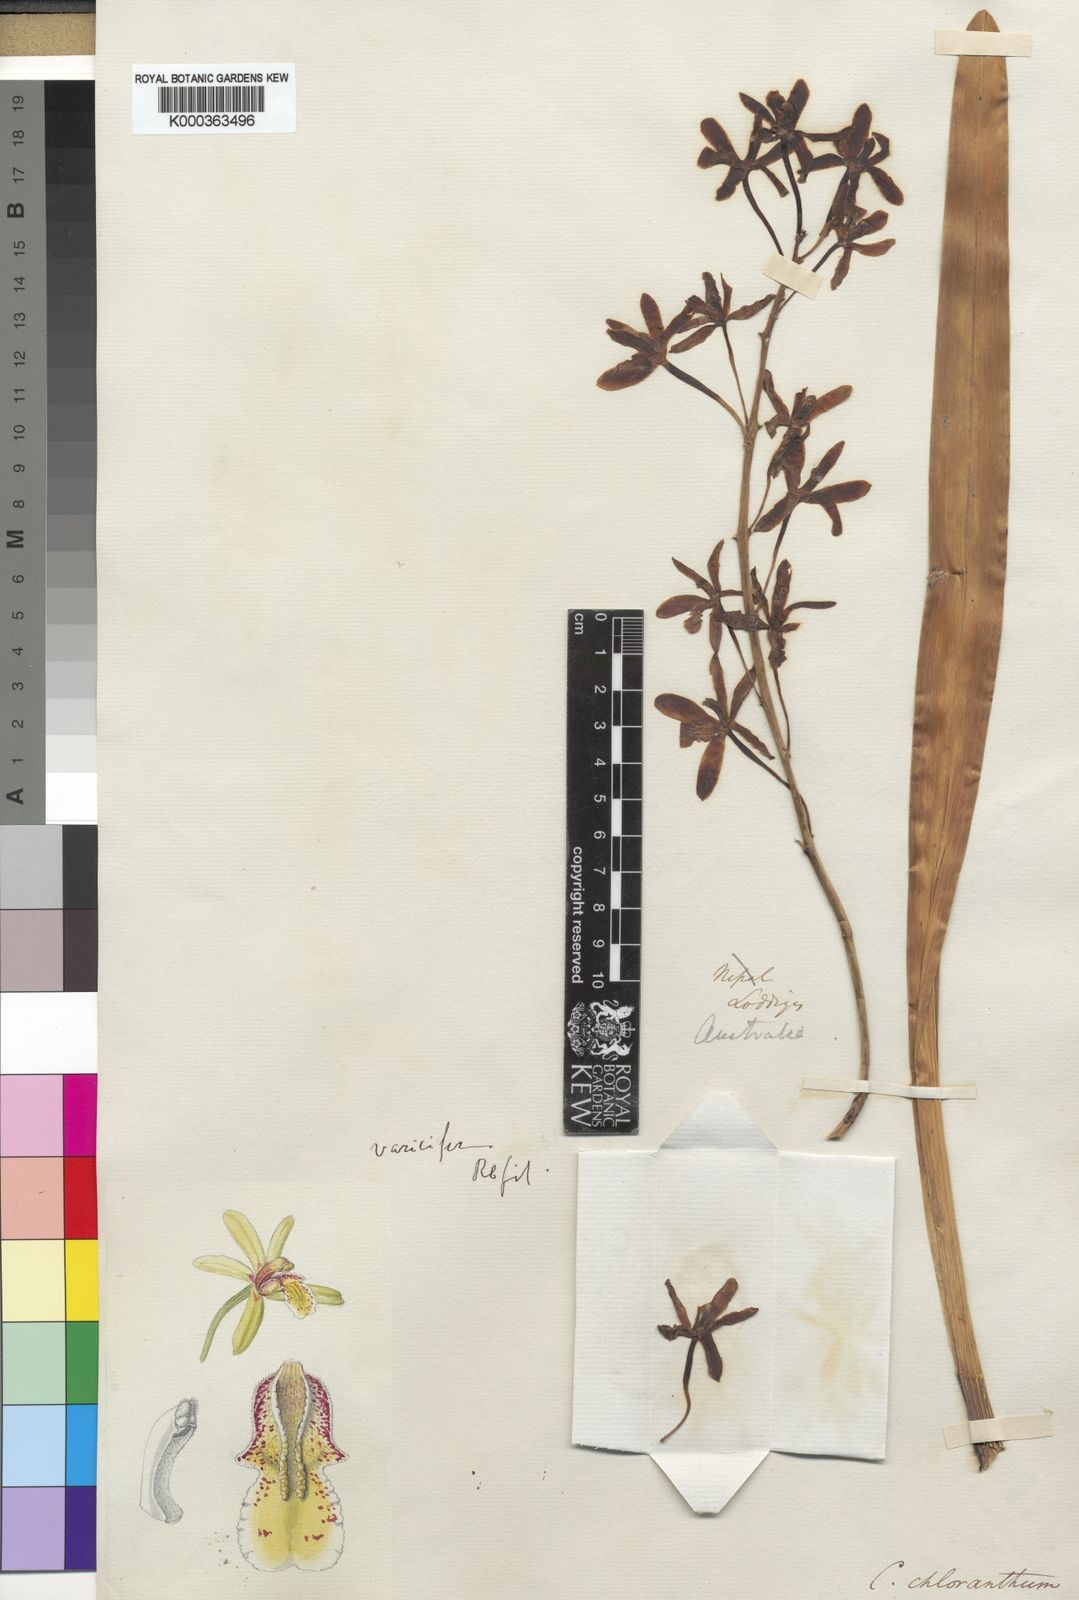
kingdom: Plantae
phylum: Tracheophyta
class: Liliopsida
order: Asparagales
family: Orchidaceae
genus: Cymbidium
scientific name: Cymbidium chloranthum
